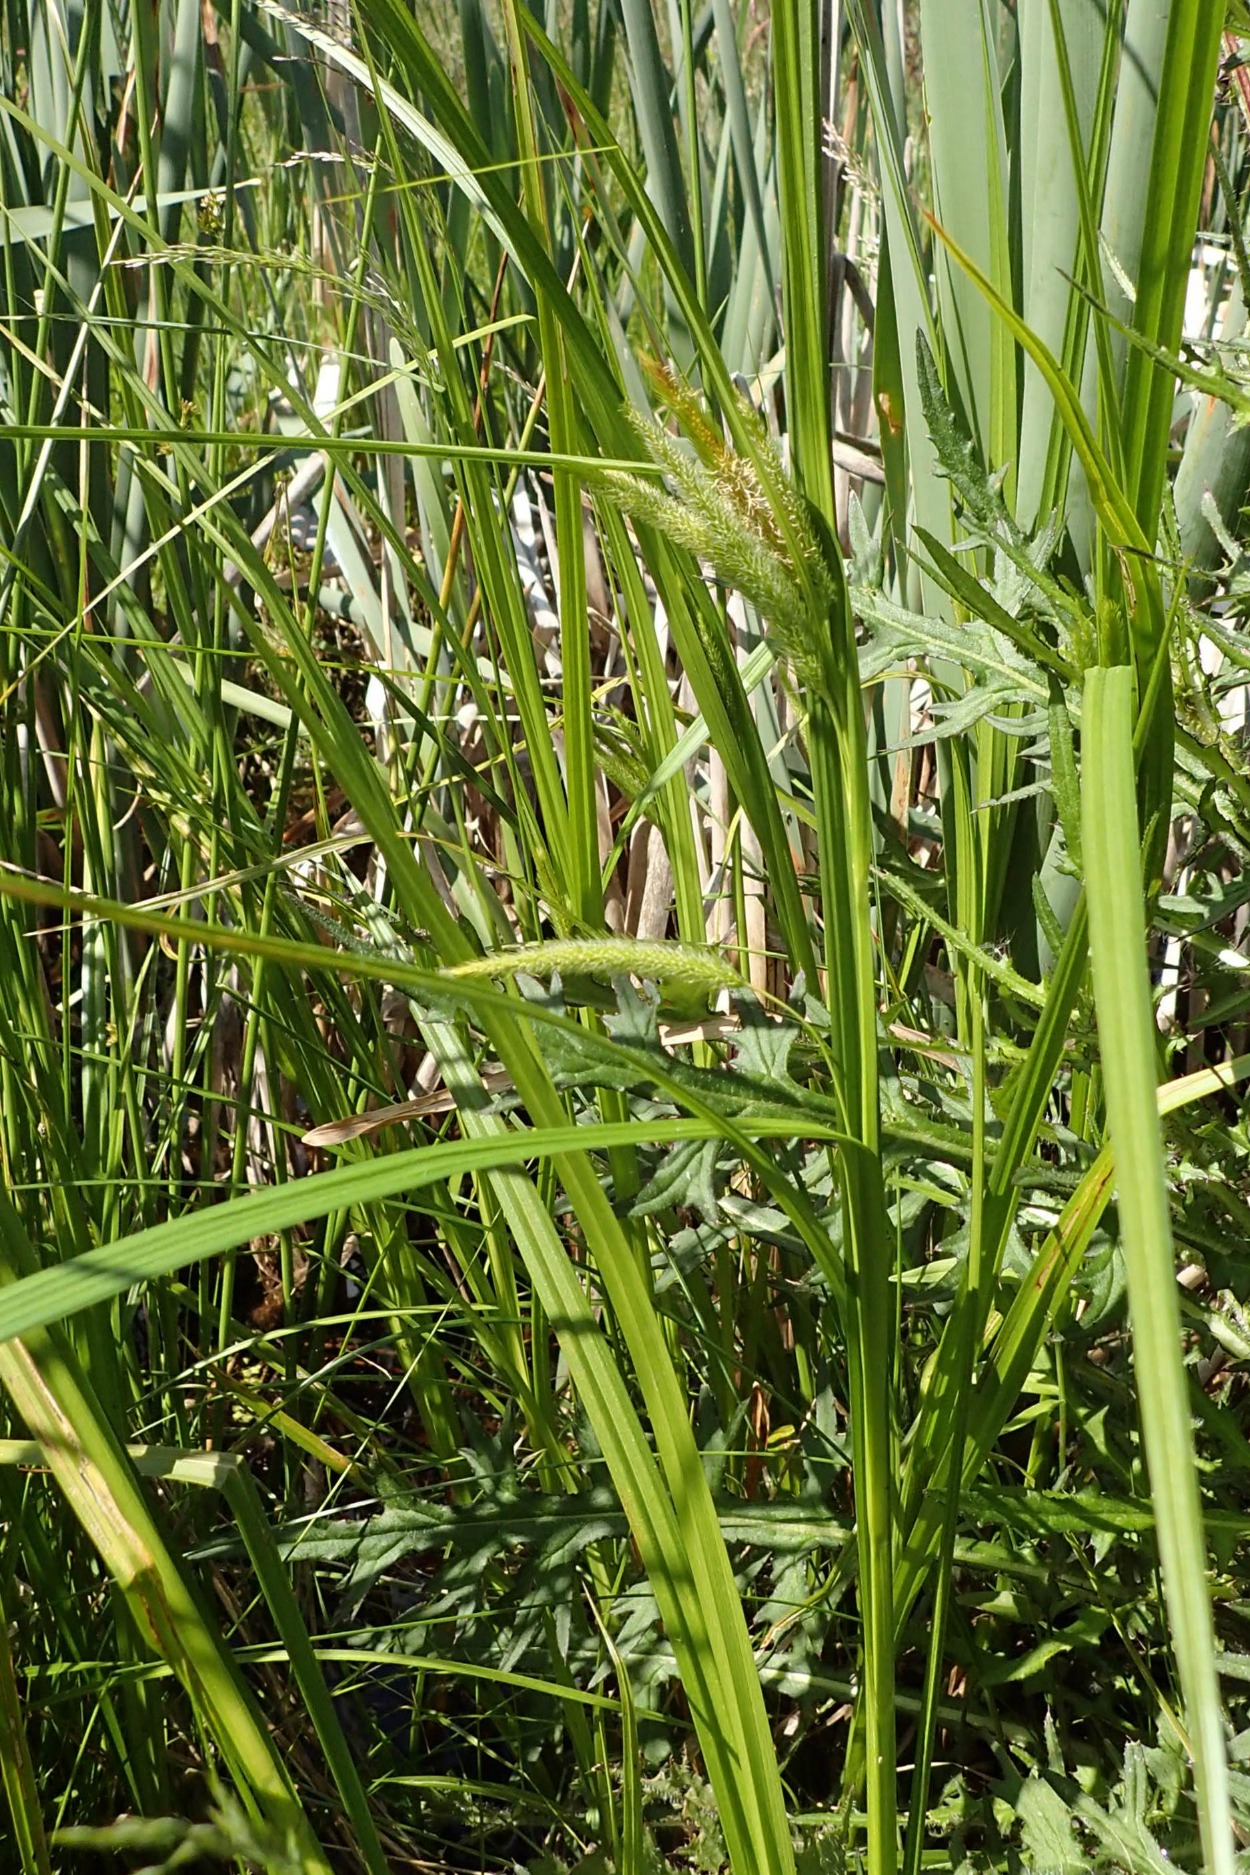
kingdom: Plantae
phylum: Tracheophyta
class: Liliopsida
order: Poales
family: Cyperaceae
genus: Carex
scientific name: Carex pseudocyperus
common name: Knippe-star
